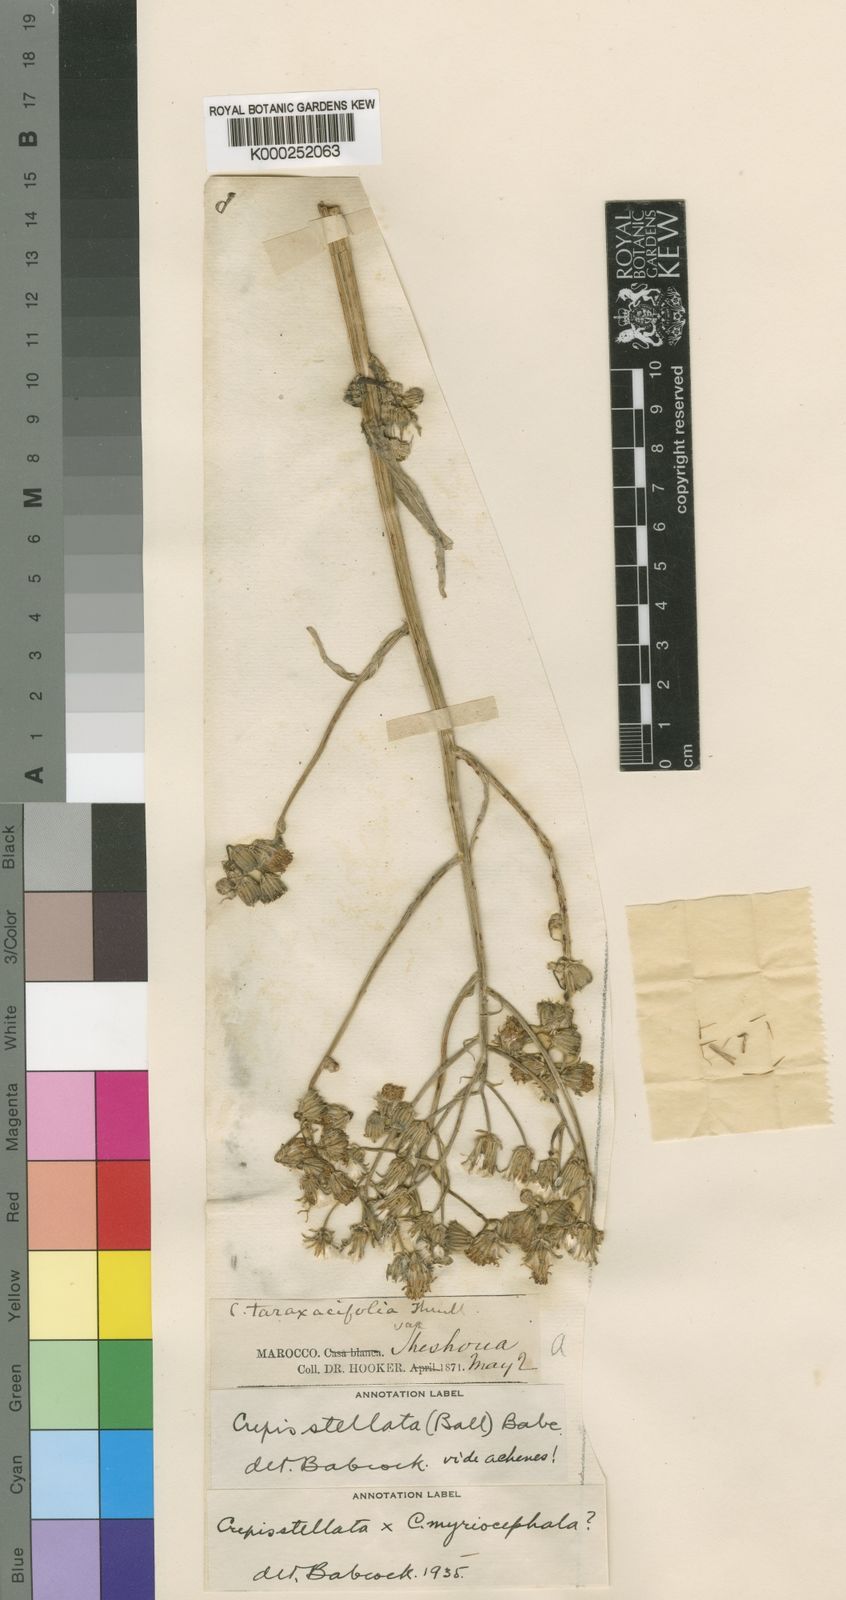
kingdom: Plantae
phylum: Tracheophyta
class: Magnoliopsida
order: Asterales
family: Asteraceae
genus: Crepis
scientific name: Crepis vesicaria
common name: Beaked hawksbeard
